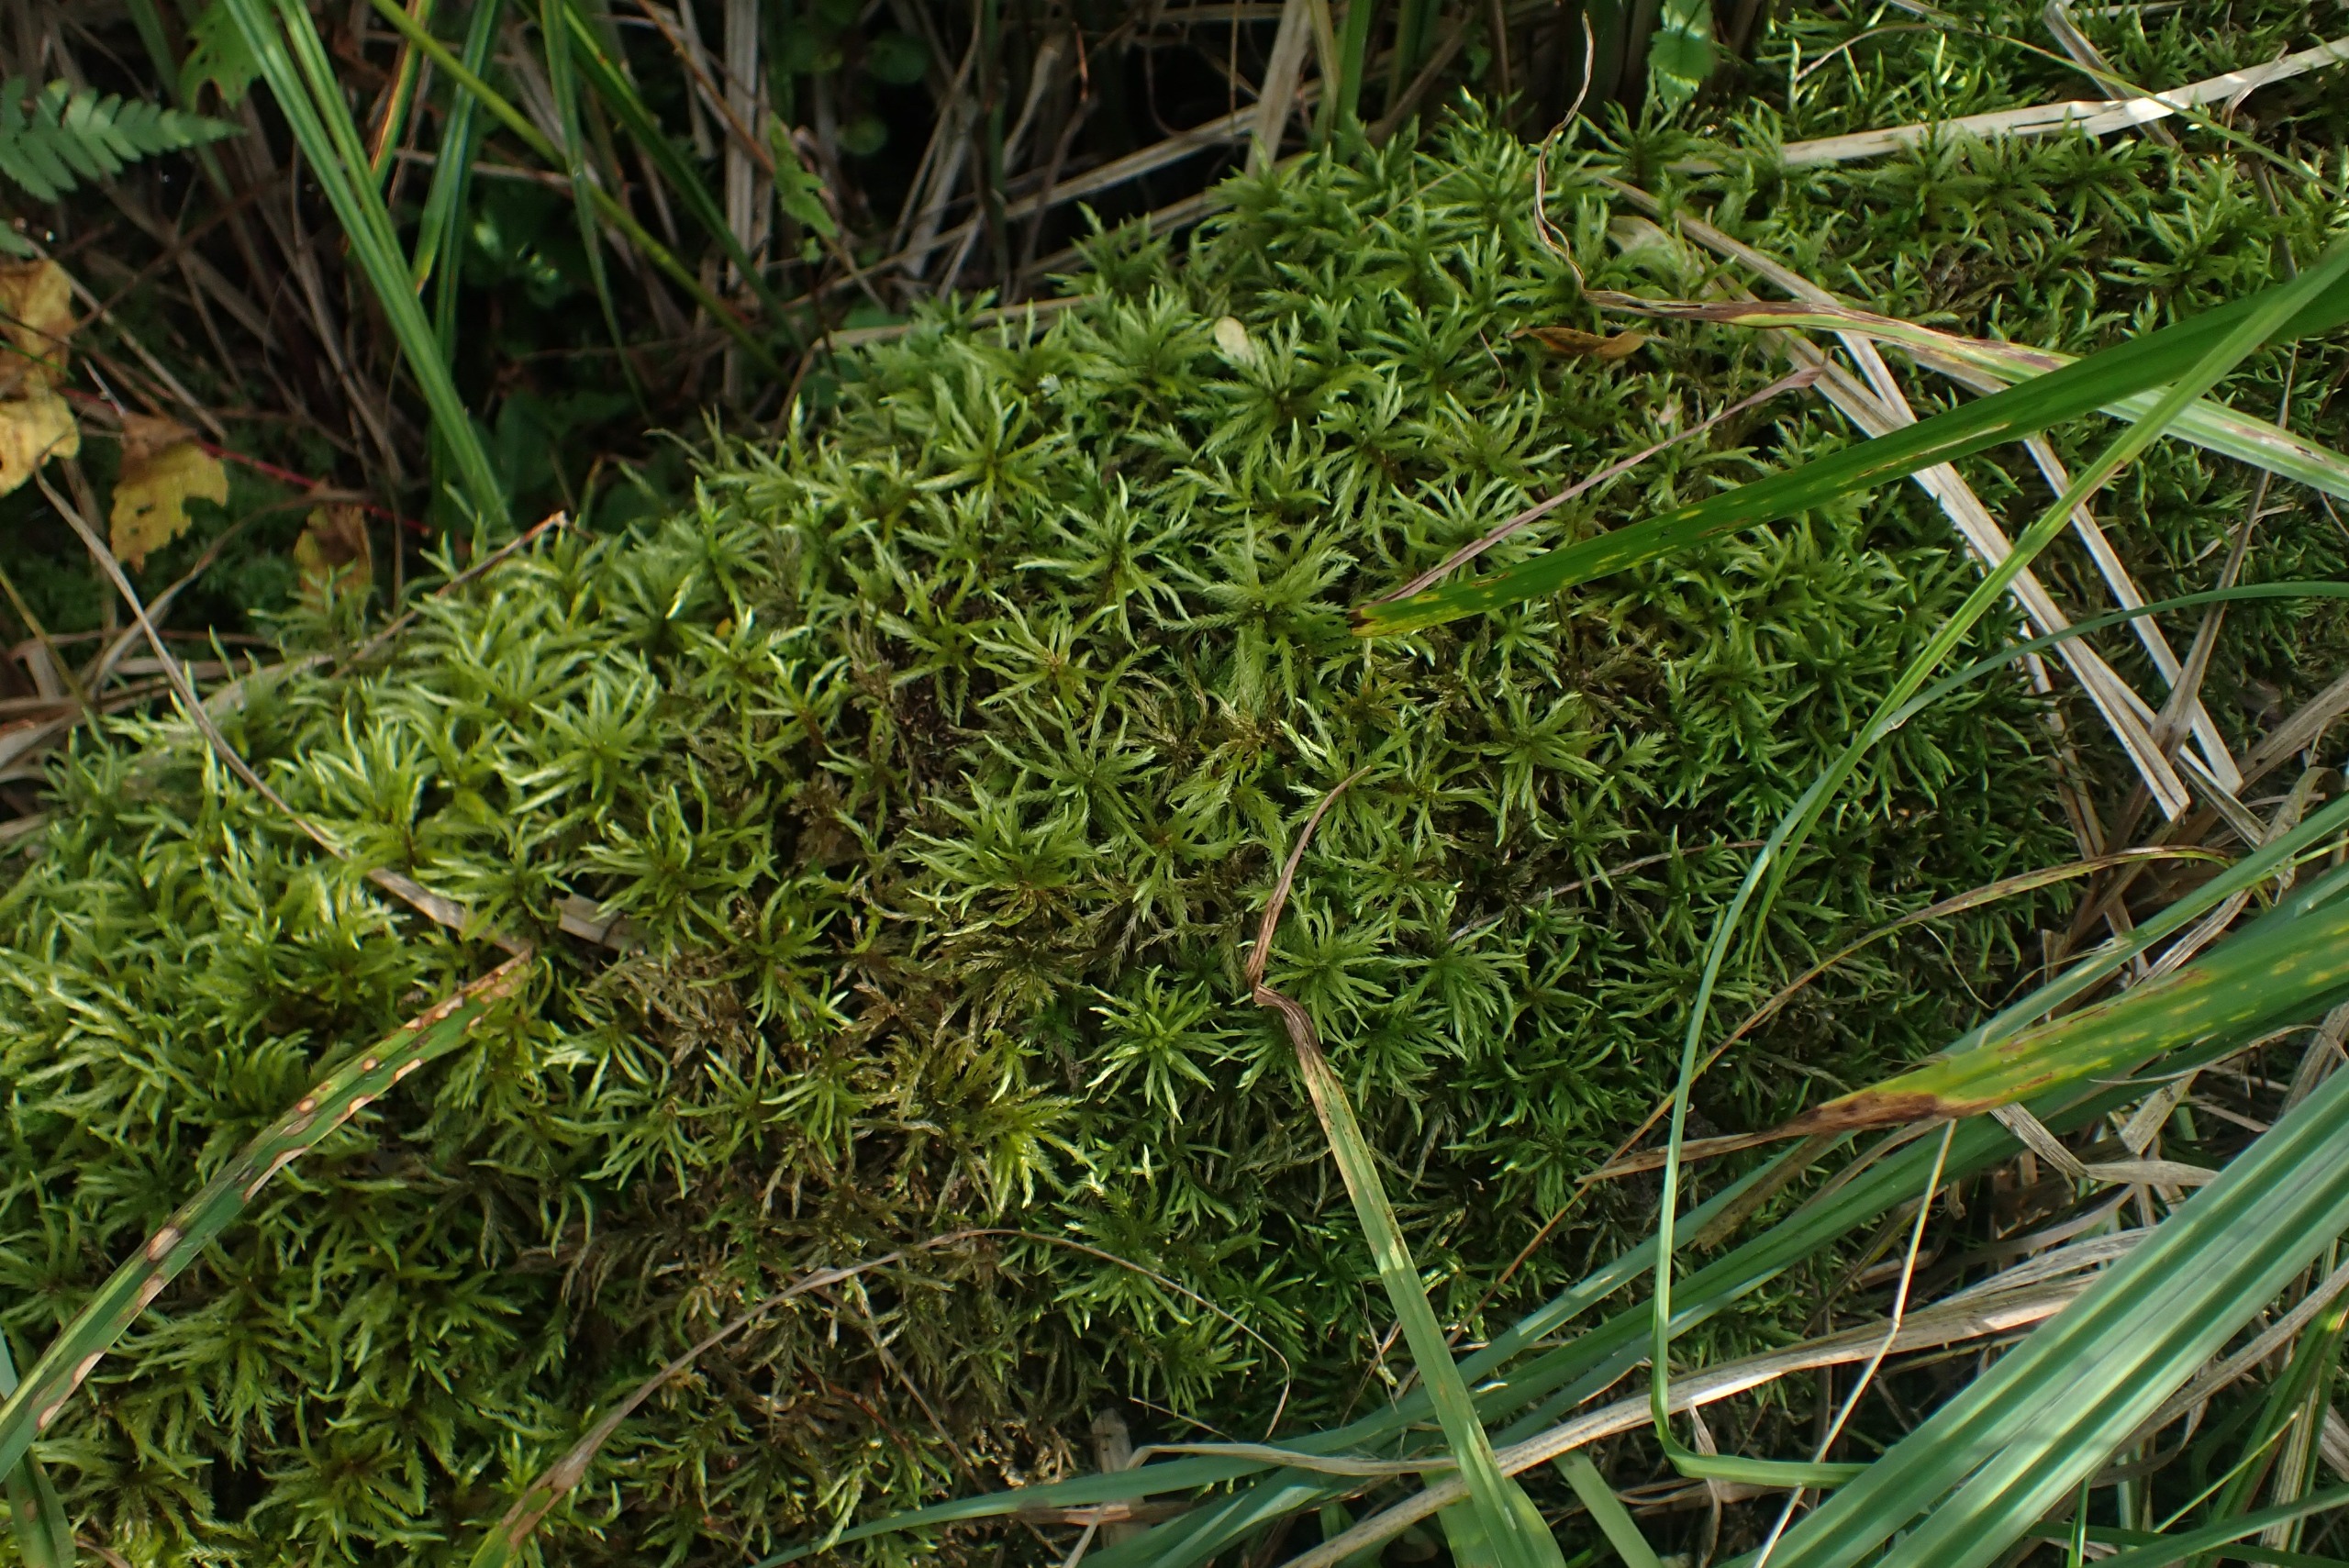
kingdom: Plantae
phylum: Bryophyta
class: Bryopsida
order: Hypnales
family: Climaciaceae
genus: Climacium
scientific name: Climacium dendroides
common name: Stor engkost
